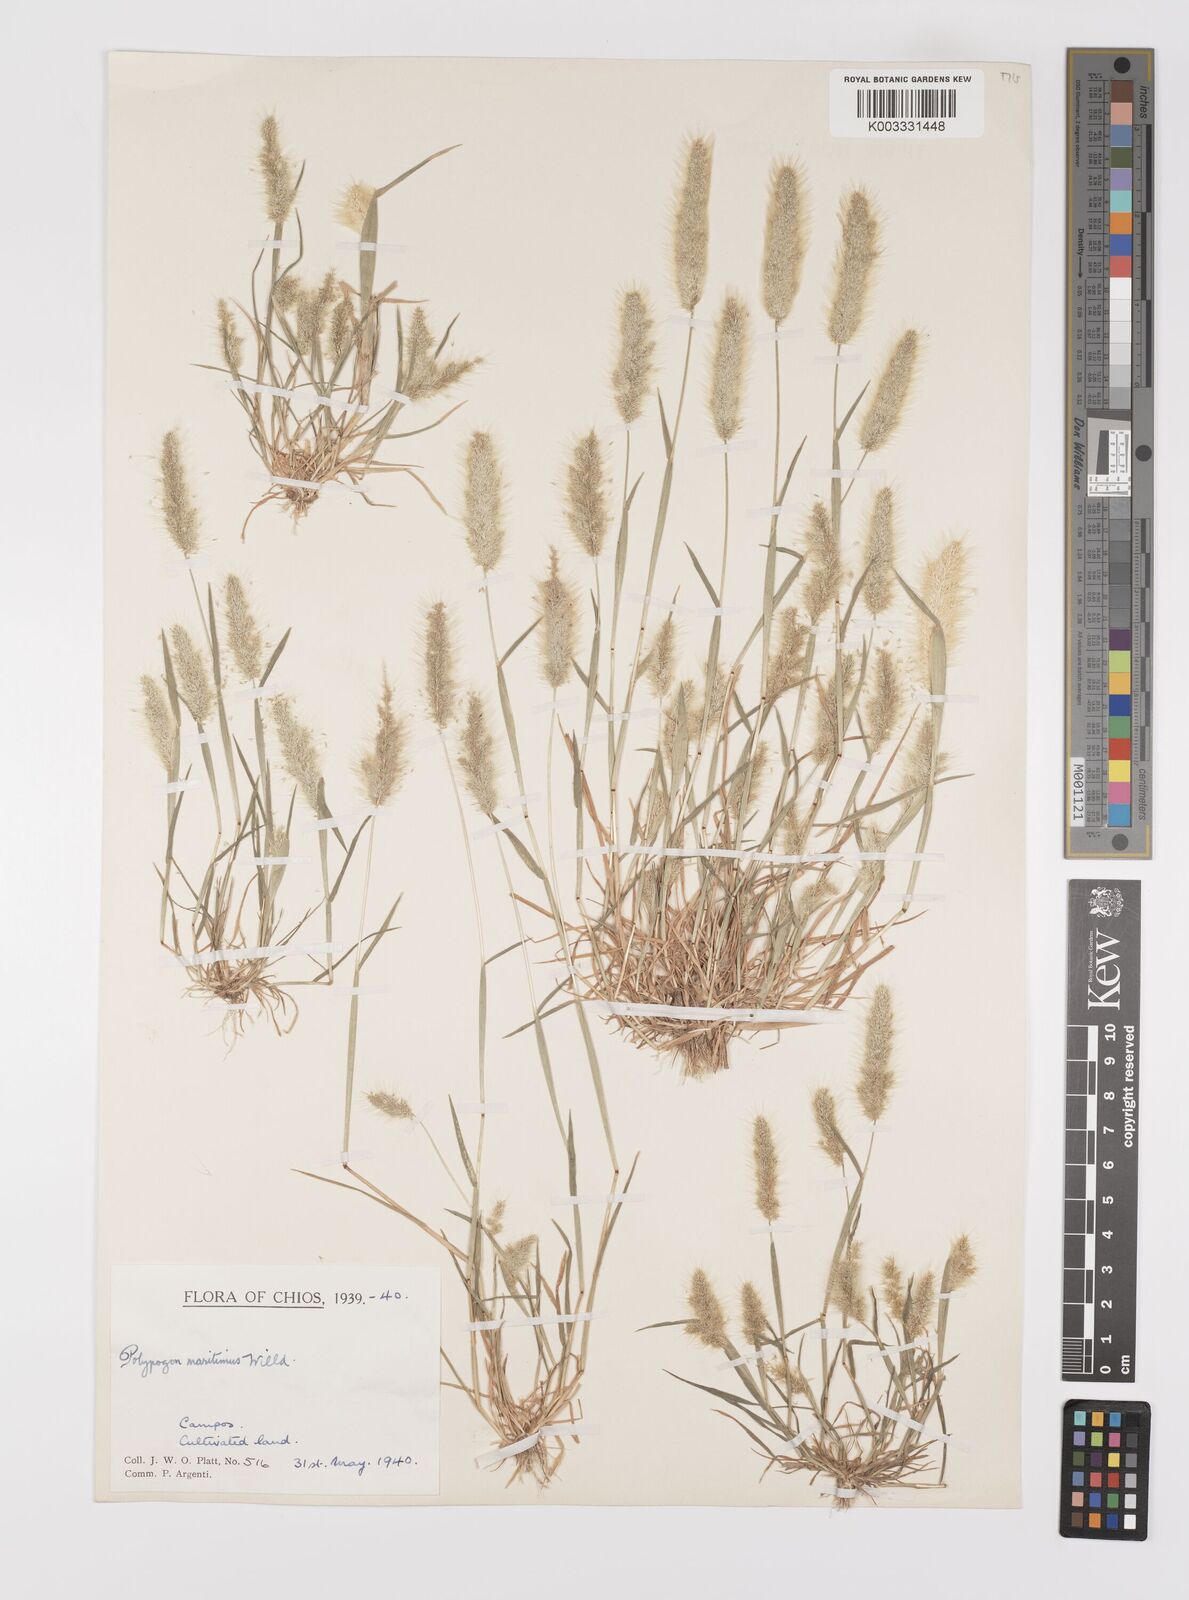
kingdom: Plantae
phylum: Tracheophyta
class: Liliopsida
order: Poales
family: Poaceae
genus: Polypogon
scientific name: Polypogon maritimus
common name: Mediterranean rabbitsfoot grass
